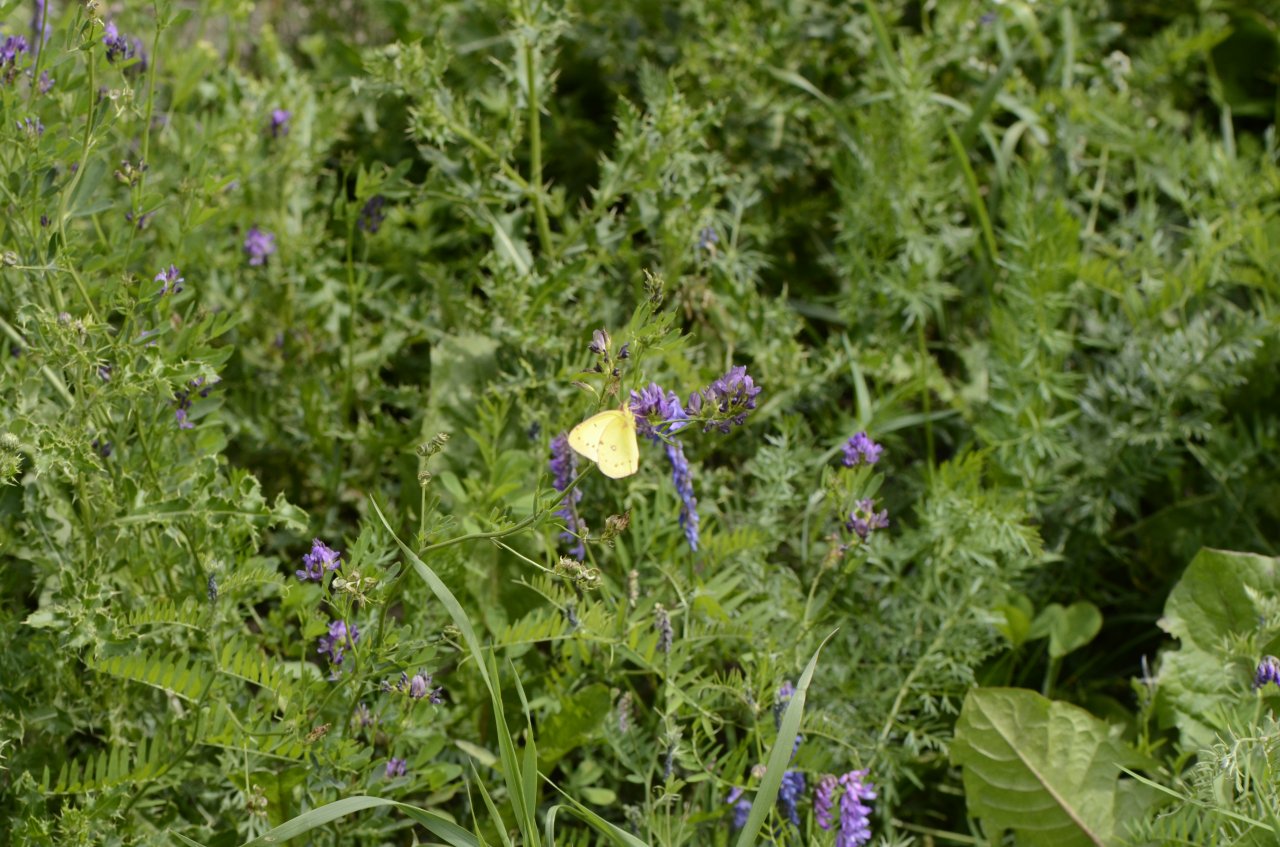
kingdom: Animalia
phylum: Arthropoda
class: Insecta
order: Lepidoptera
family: Pieridae
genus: Colias
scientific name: Colias philodice
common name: Clouded Sulphur
